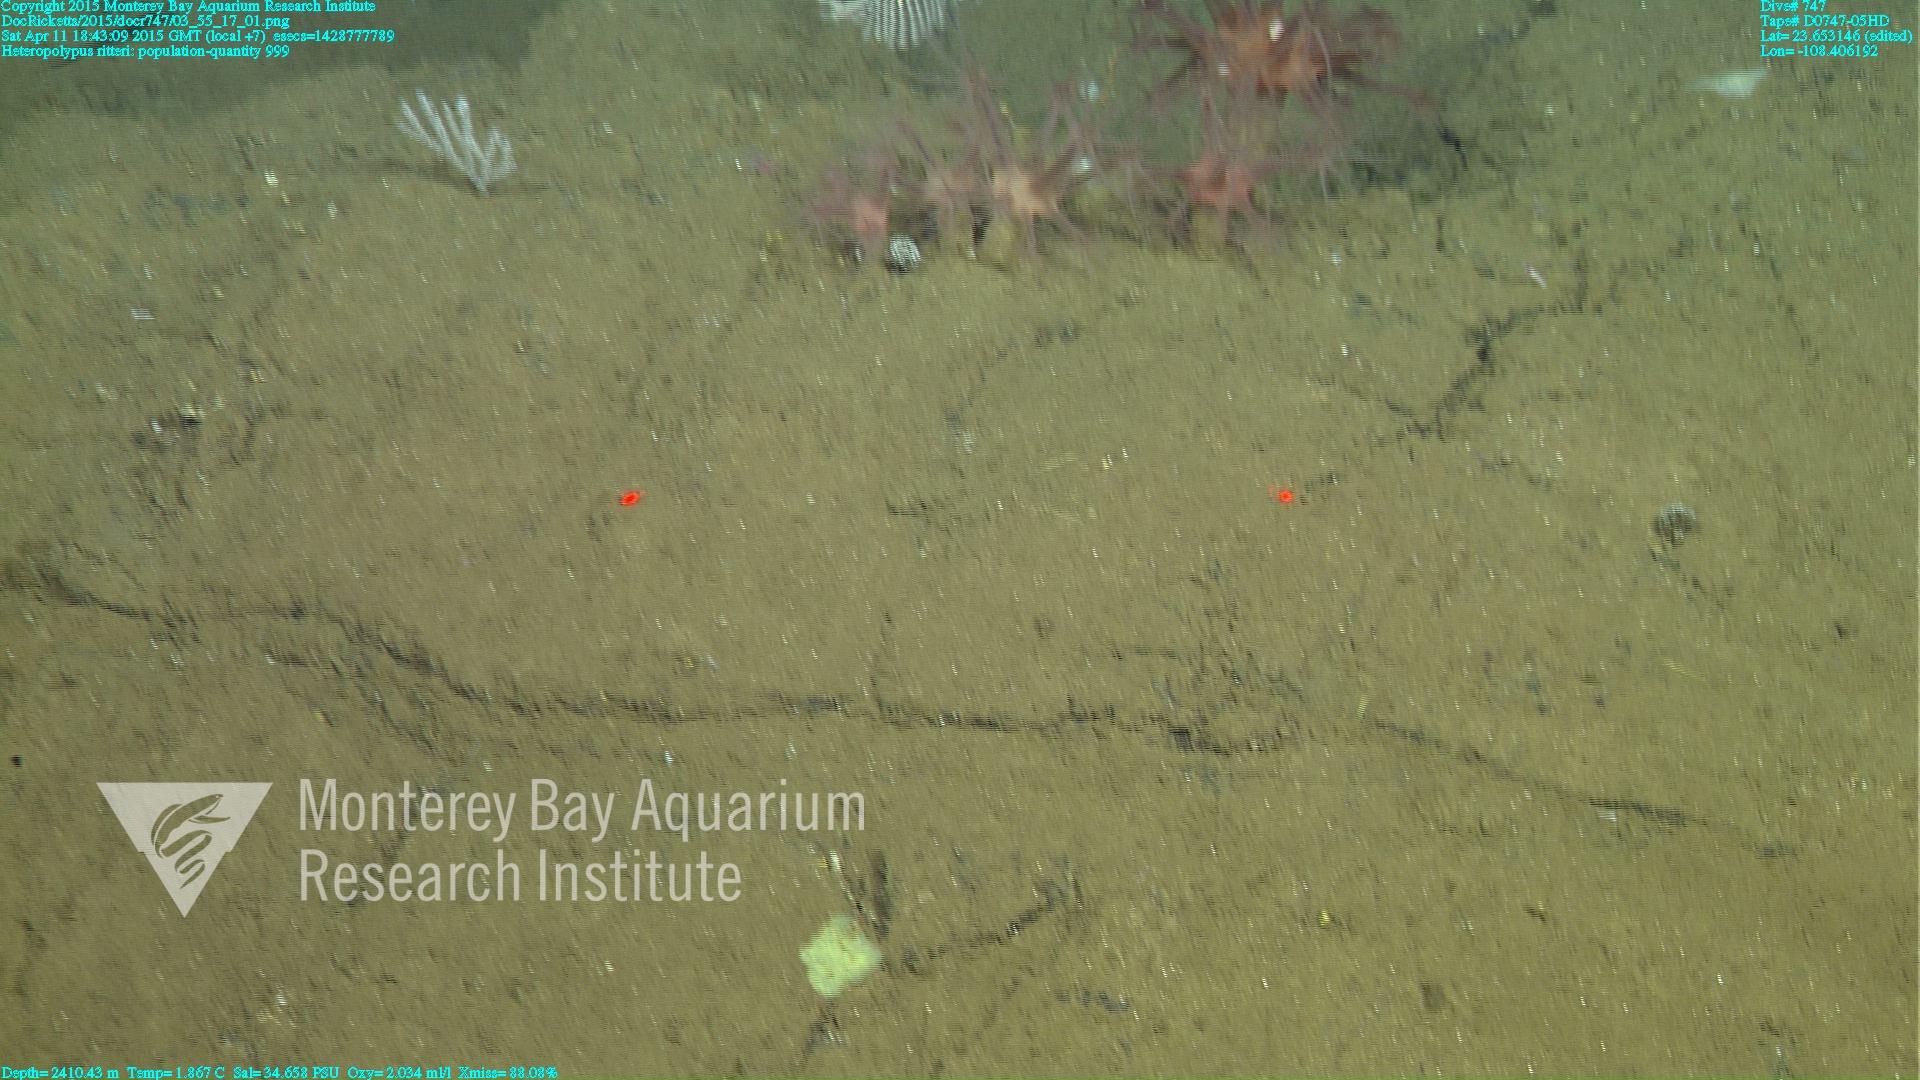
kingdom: Animalia
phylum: Cnidaria
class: Anthozoa
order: Scleralcyonacea
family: Coralliidae
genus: Heteropolypus
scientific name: Heteropolypus ritteri
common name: Ritter's soft coral
